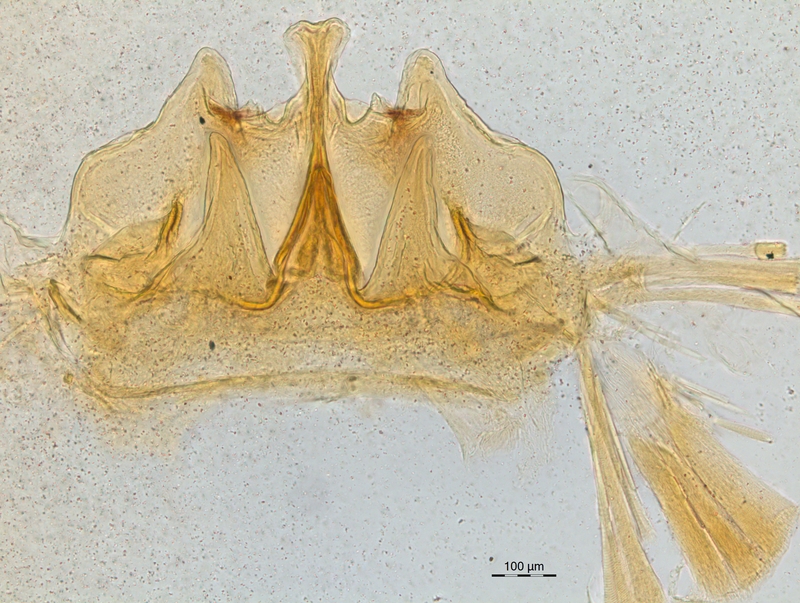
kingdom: Animalia
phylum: Arthropoda
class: Diplopoda
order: Chordeumatida
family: Craspedosomatidae
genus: Craspedosoma
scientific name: Craspedosoma rawlinsii
